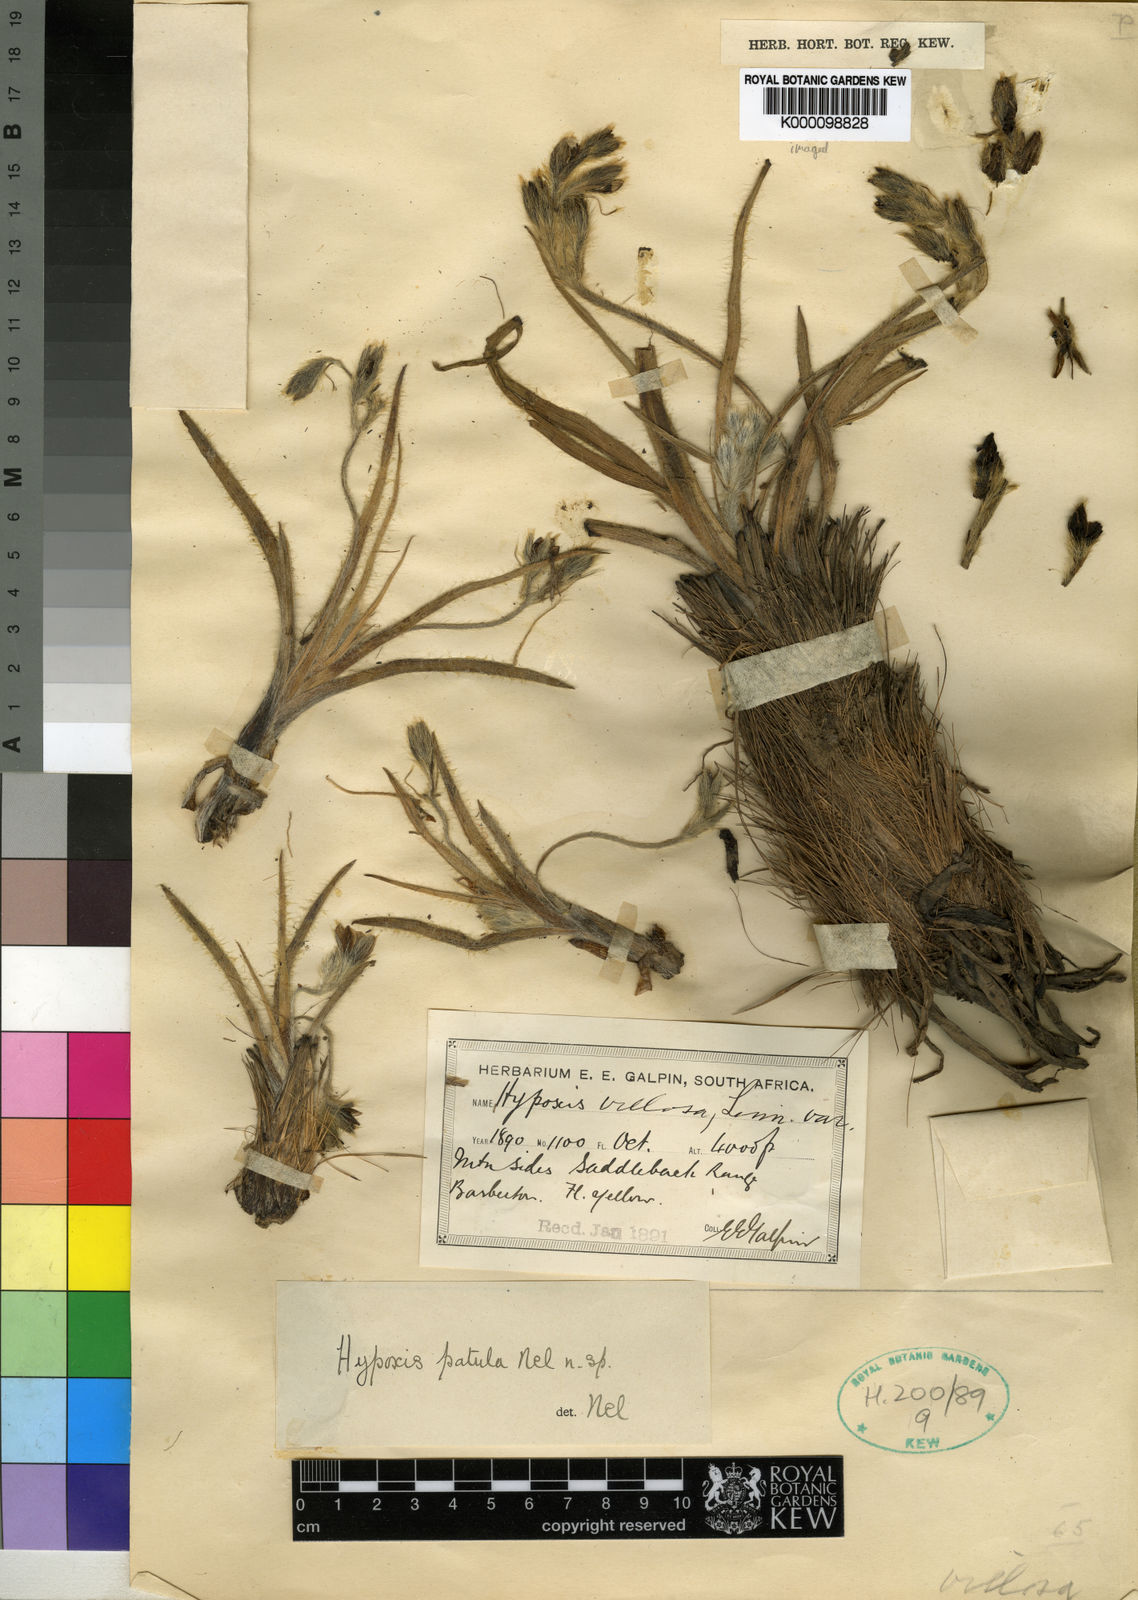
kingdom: Plantae
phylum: Tracheophyta
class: Liliopsida
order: Asparagales
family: Hypoxidaceae
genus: Hypoxis
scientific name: Hypoxis hemerocallidea
